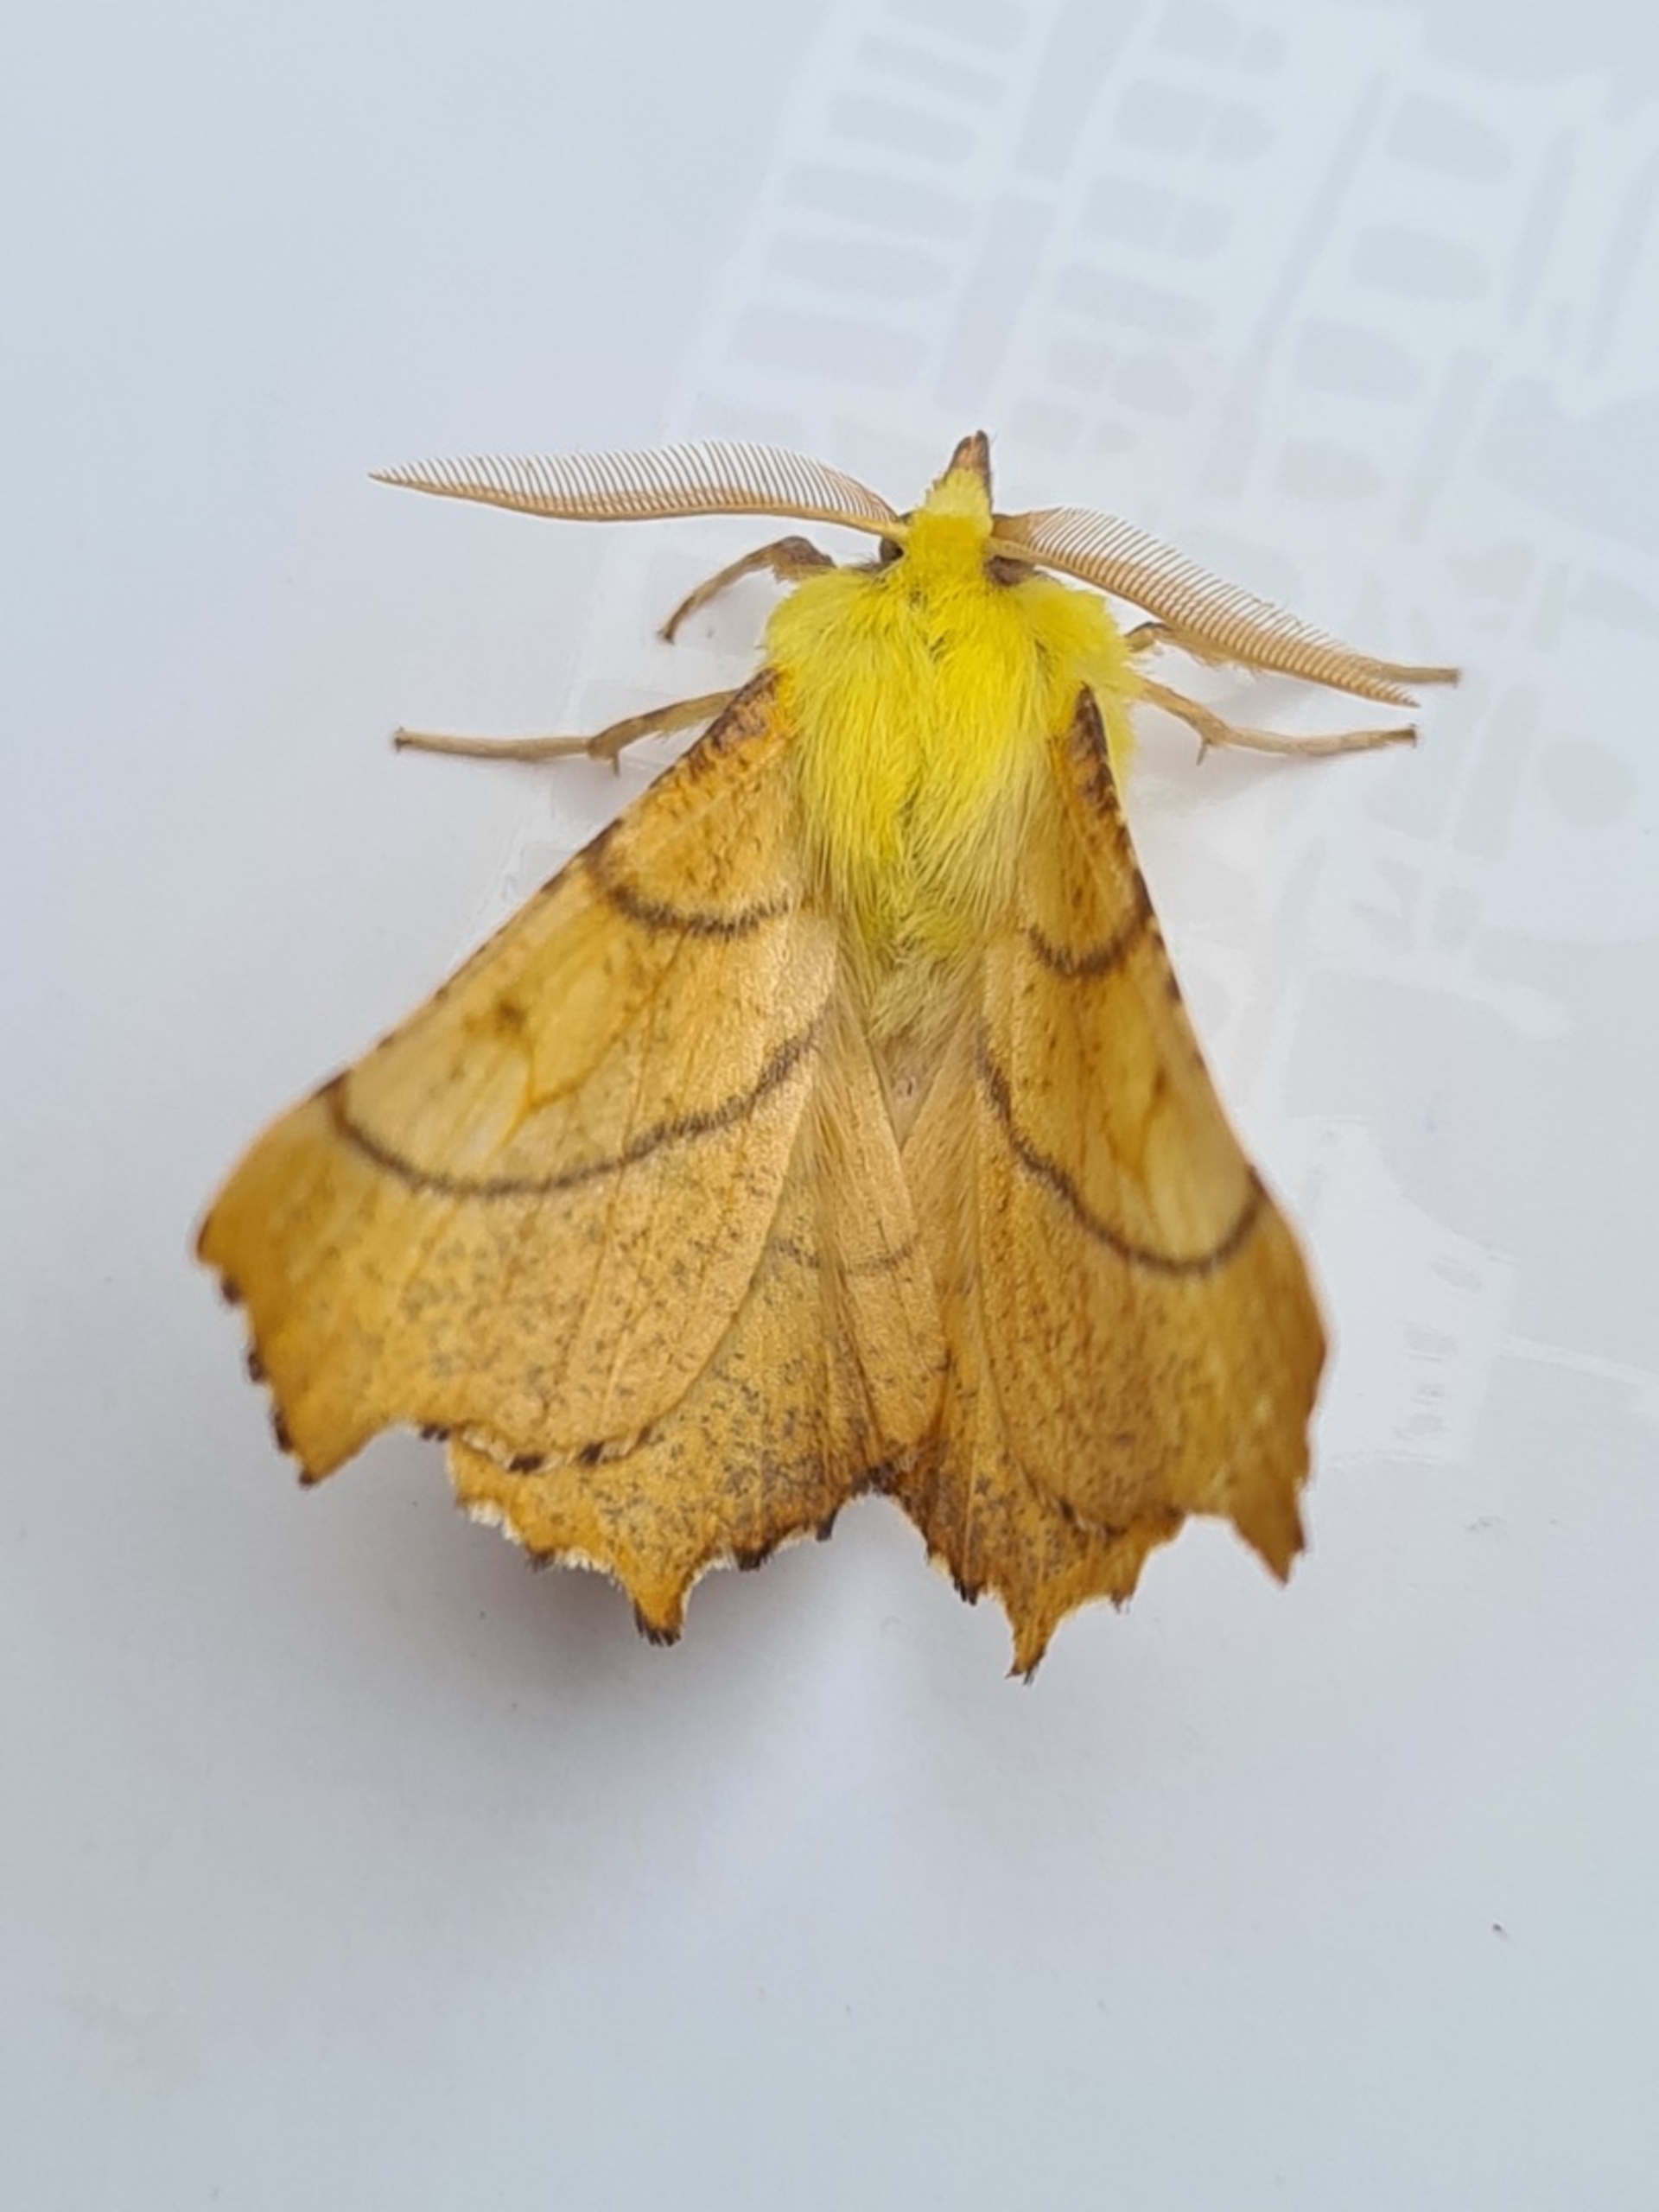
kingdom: Animalia
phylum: Arthropoda
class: Insecta
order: Lepidoptera
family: Geometridae
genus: Ennomos
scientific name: Ennomos alniaria
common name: Elle-tandmåler
